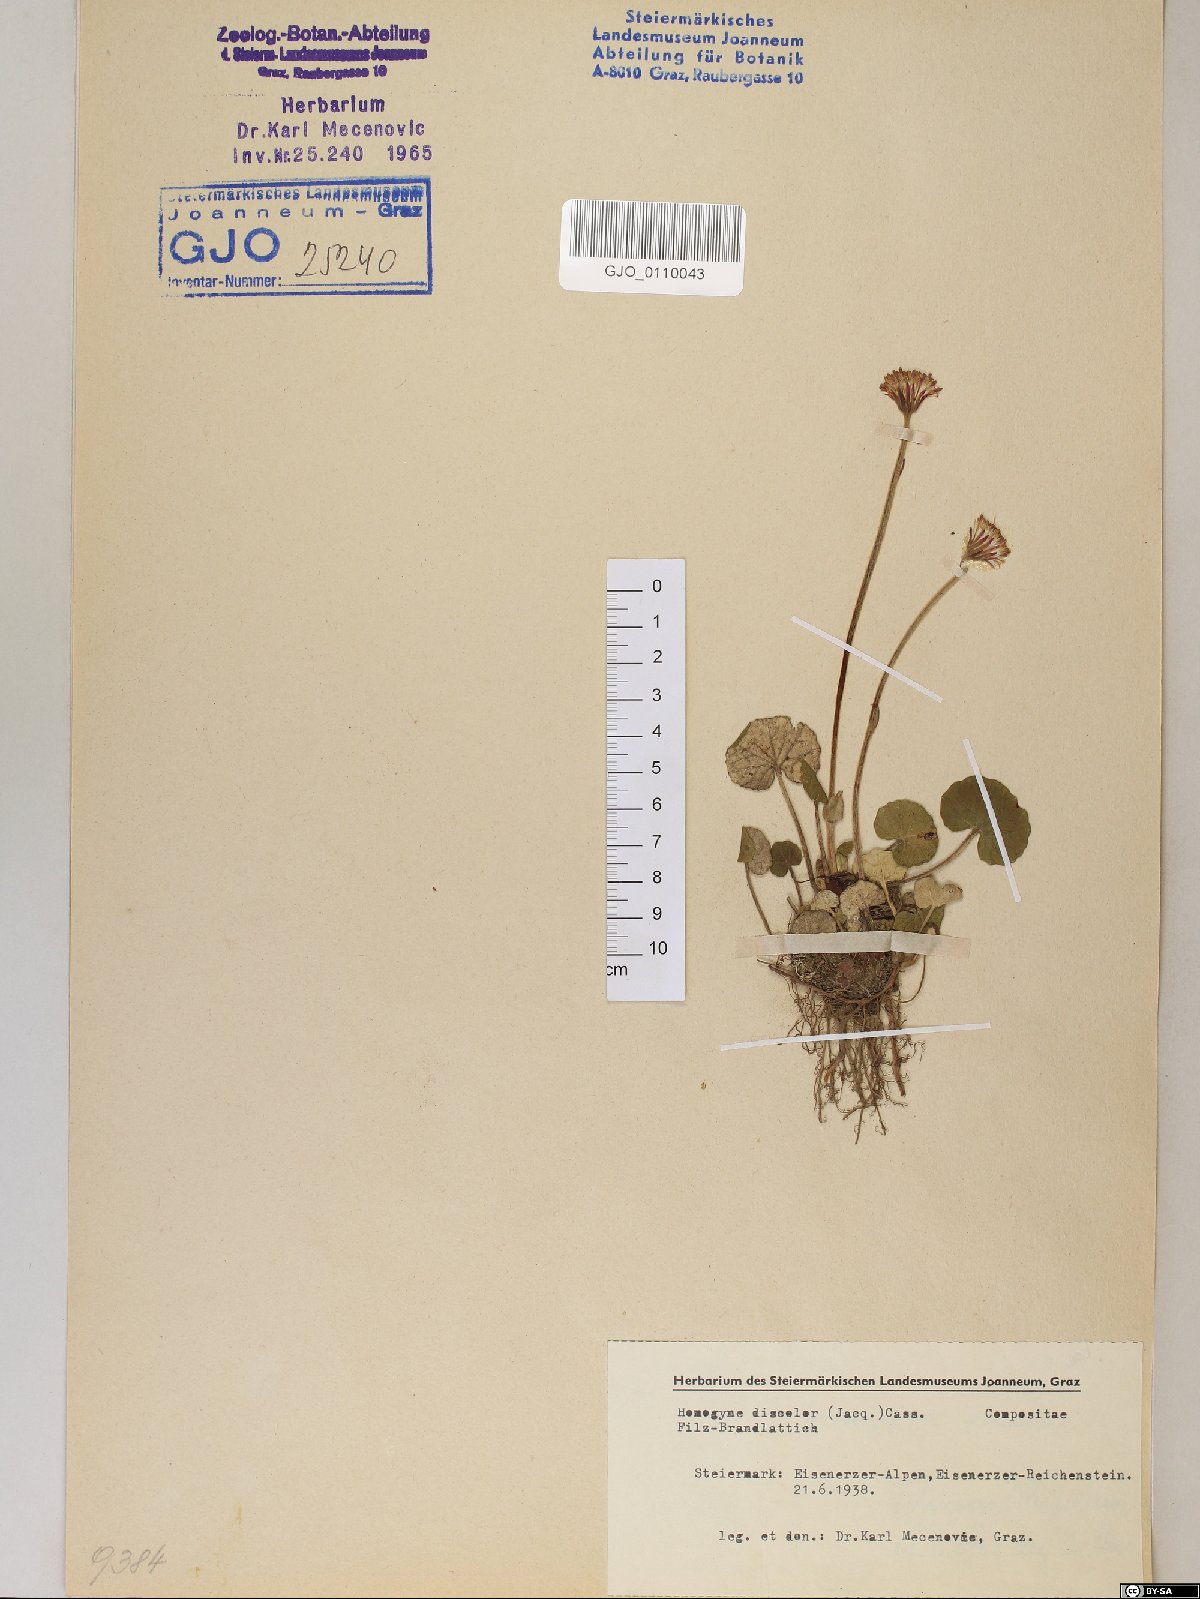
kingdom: Plantae
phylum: Tracheophyta
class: Magnoliopsida
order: Asterales
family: Asteraceae
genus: Homogyne
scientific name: Homogyne discolor
